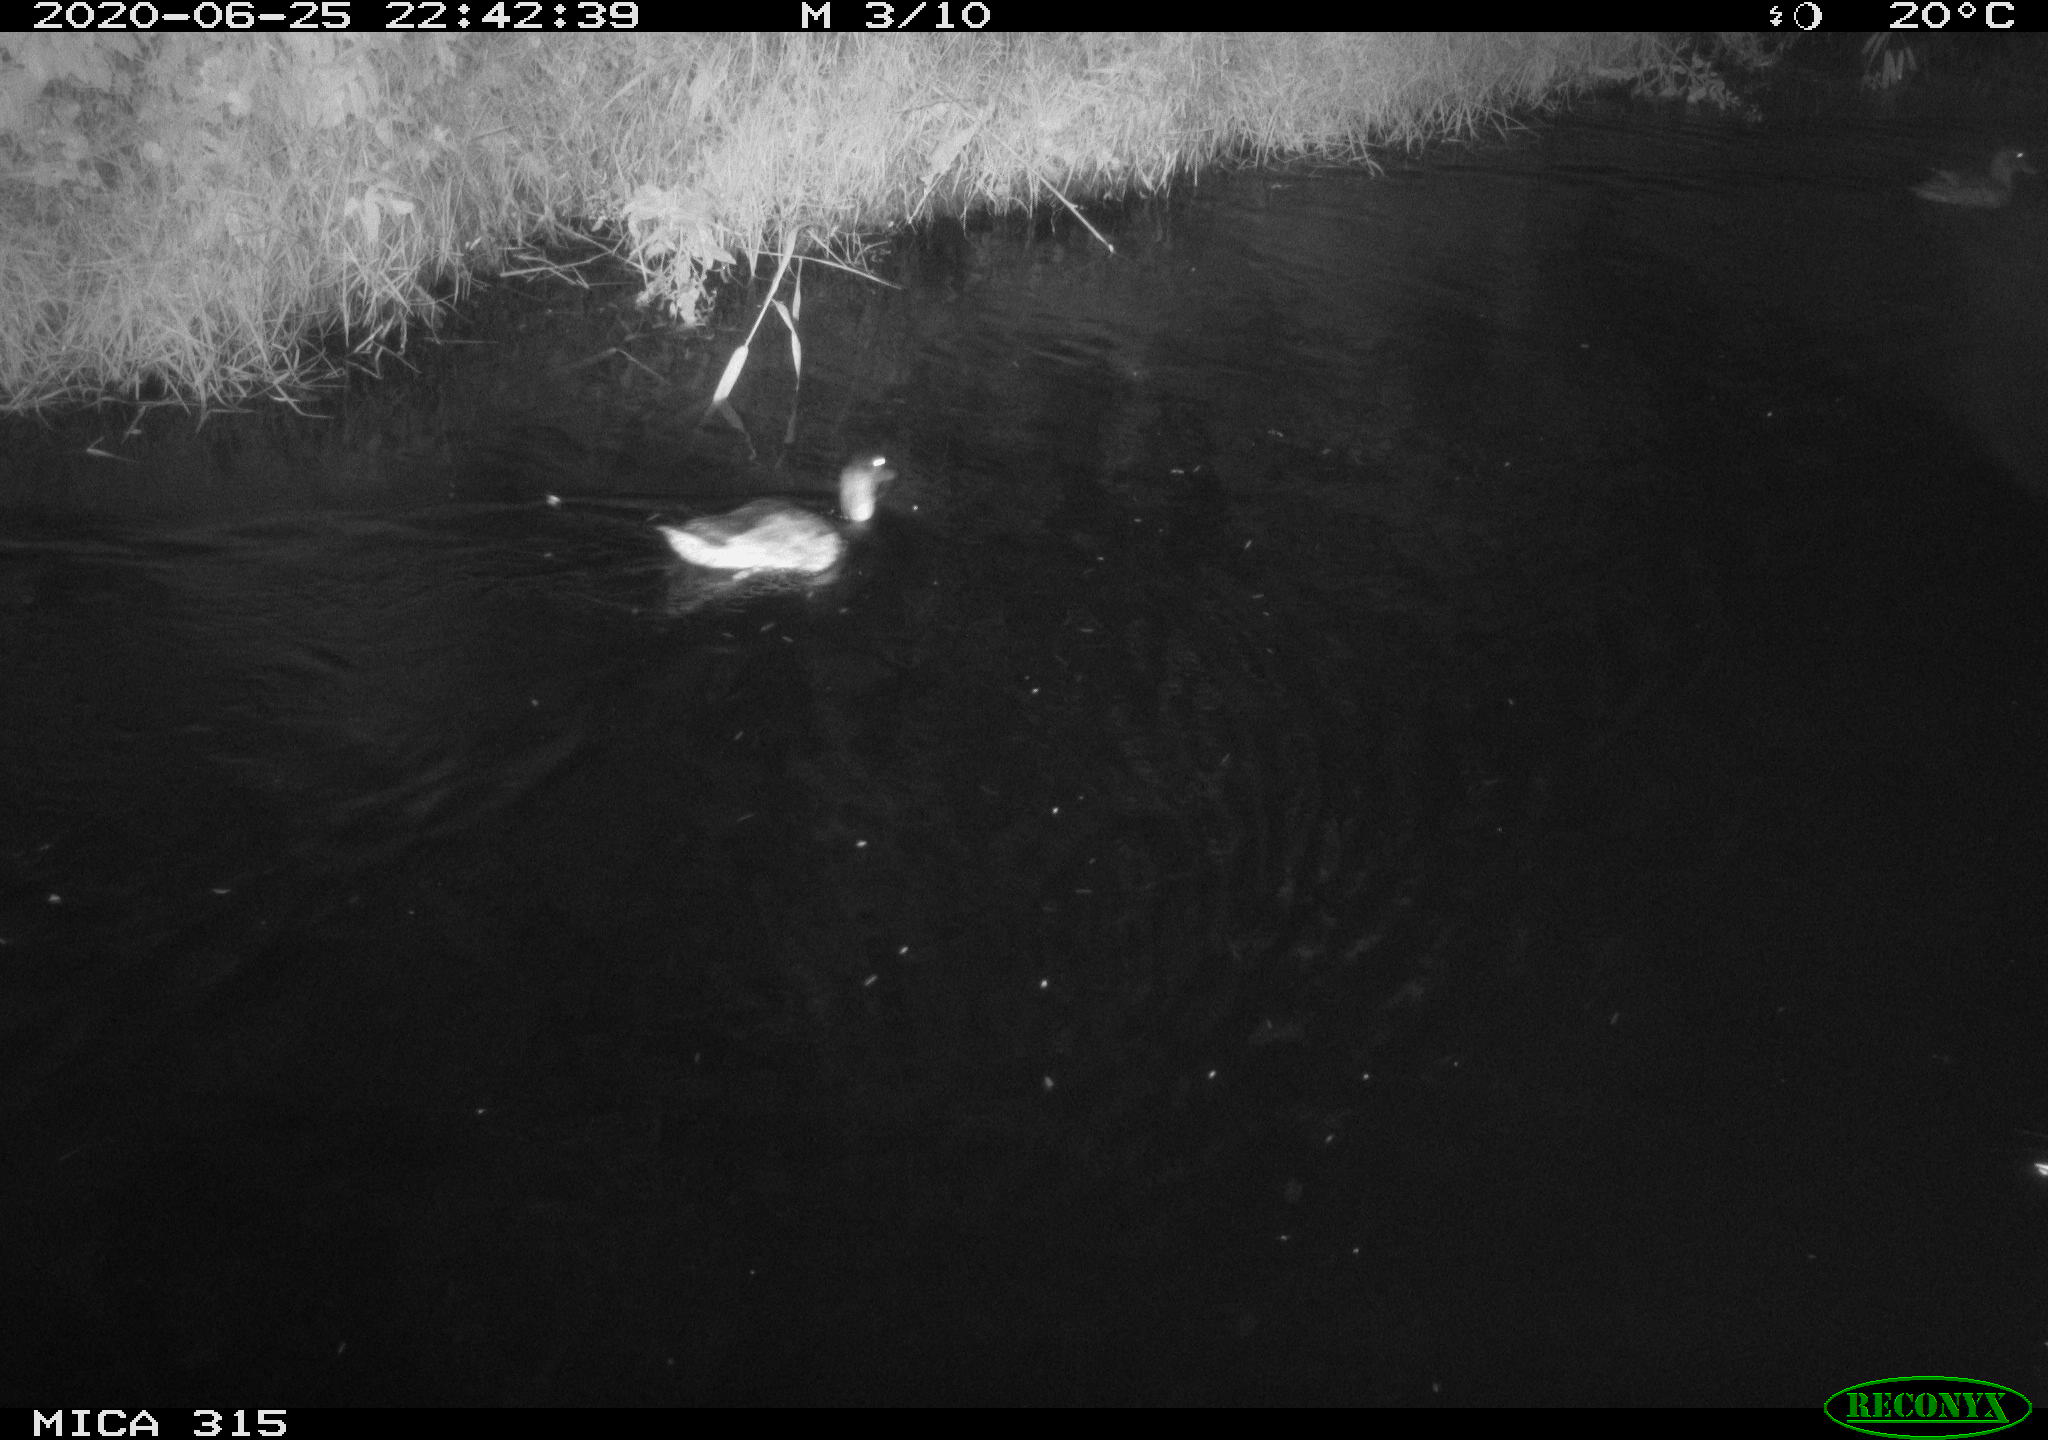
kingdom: Animalia
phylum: Chordata
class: Aves
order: Anseriformes
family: Anatidae
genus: Anas
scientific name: Anas platyrhynchos
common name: Mallard
